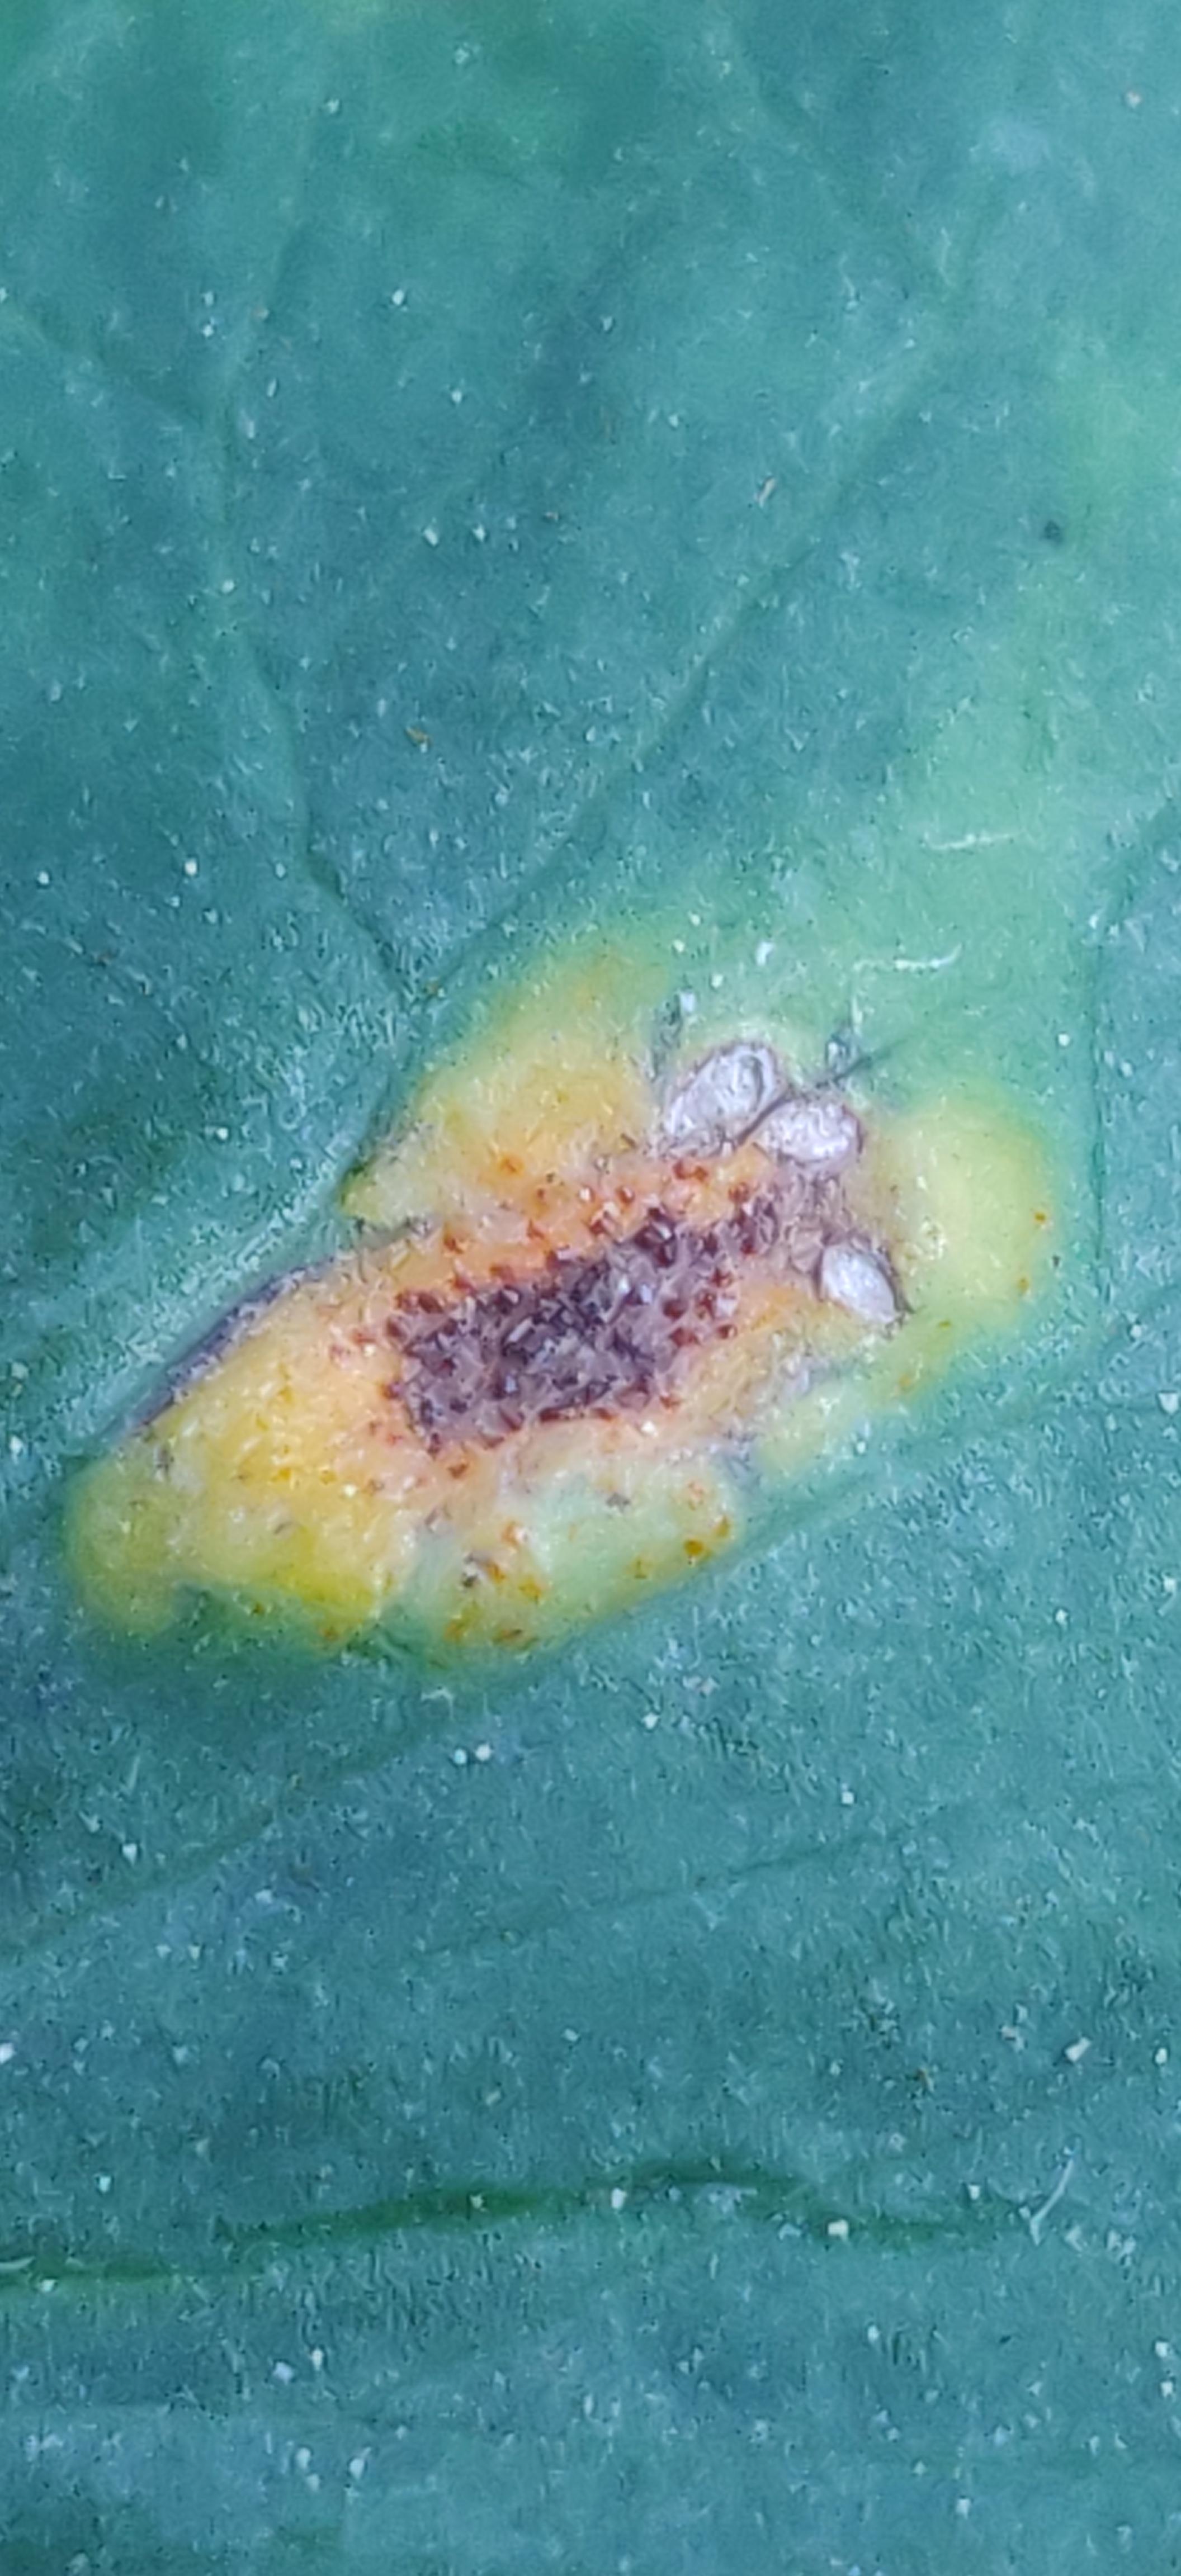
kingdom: Fungi
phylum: Basidiomycota
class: Pucciniomycetes
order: Pucciniales
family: Pucciniaceae
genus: Puccinia
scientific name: Puccinia recondita
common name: Brown rust of wheat
